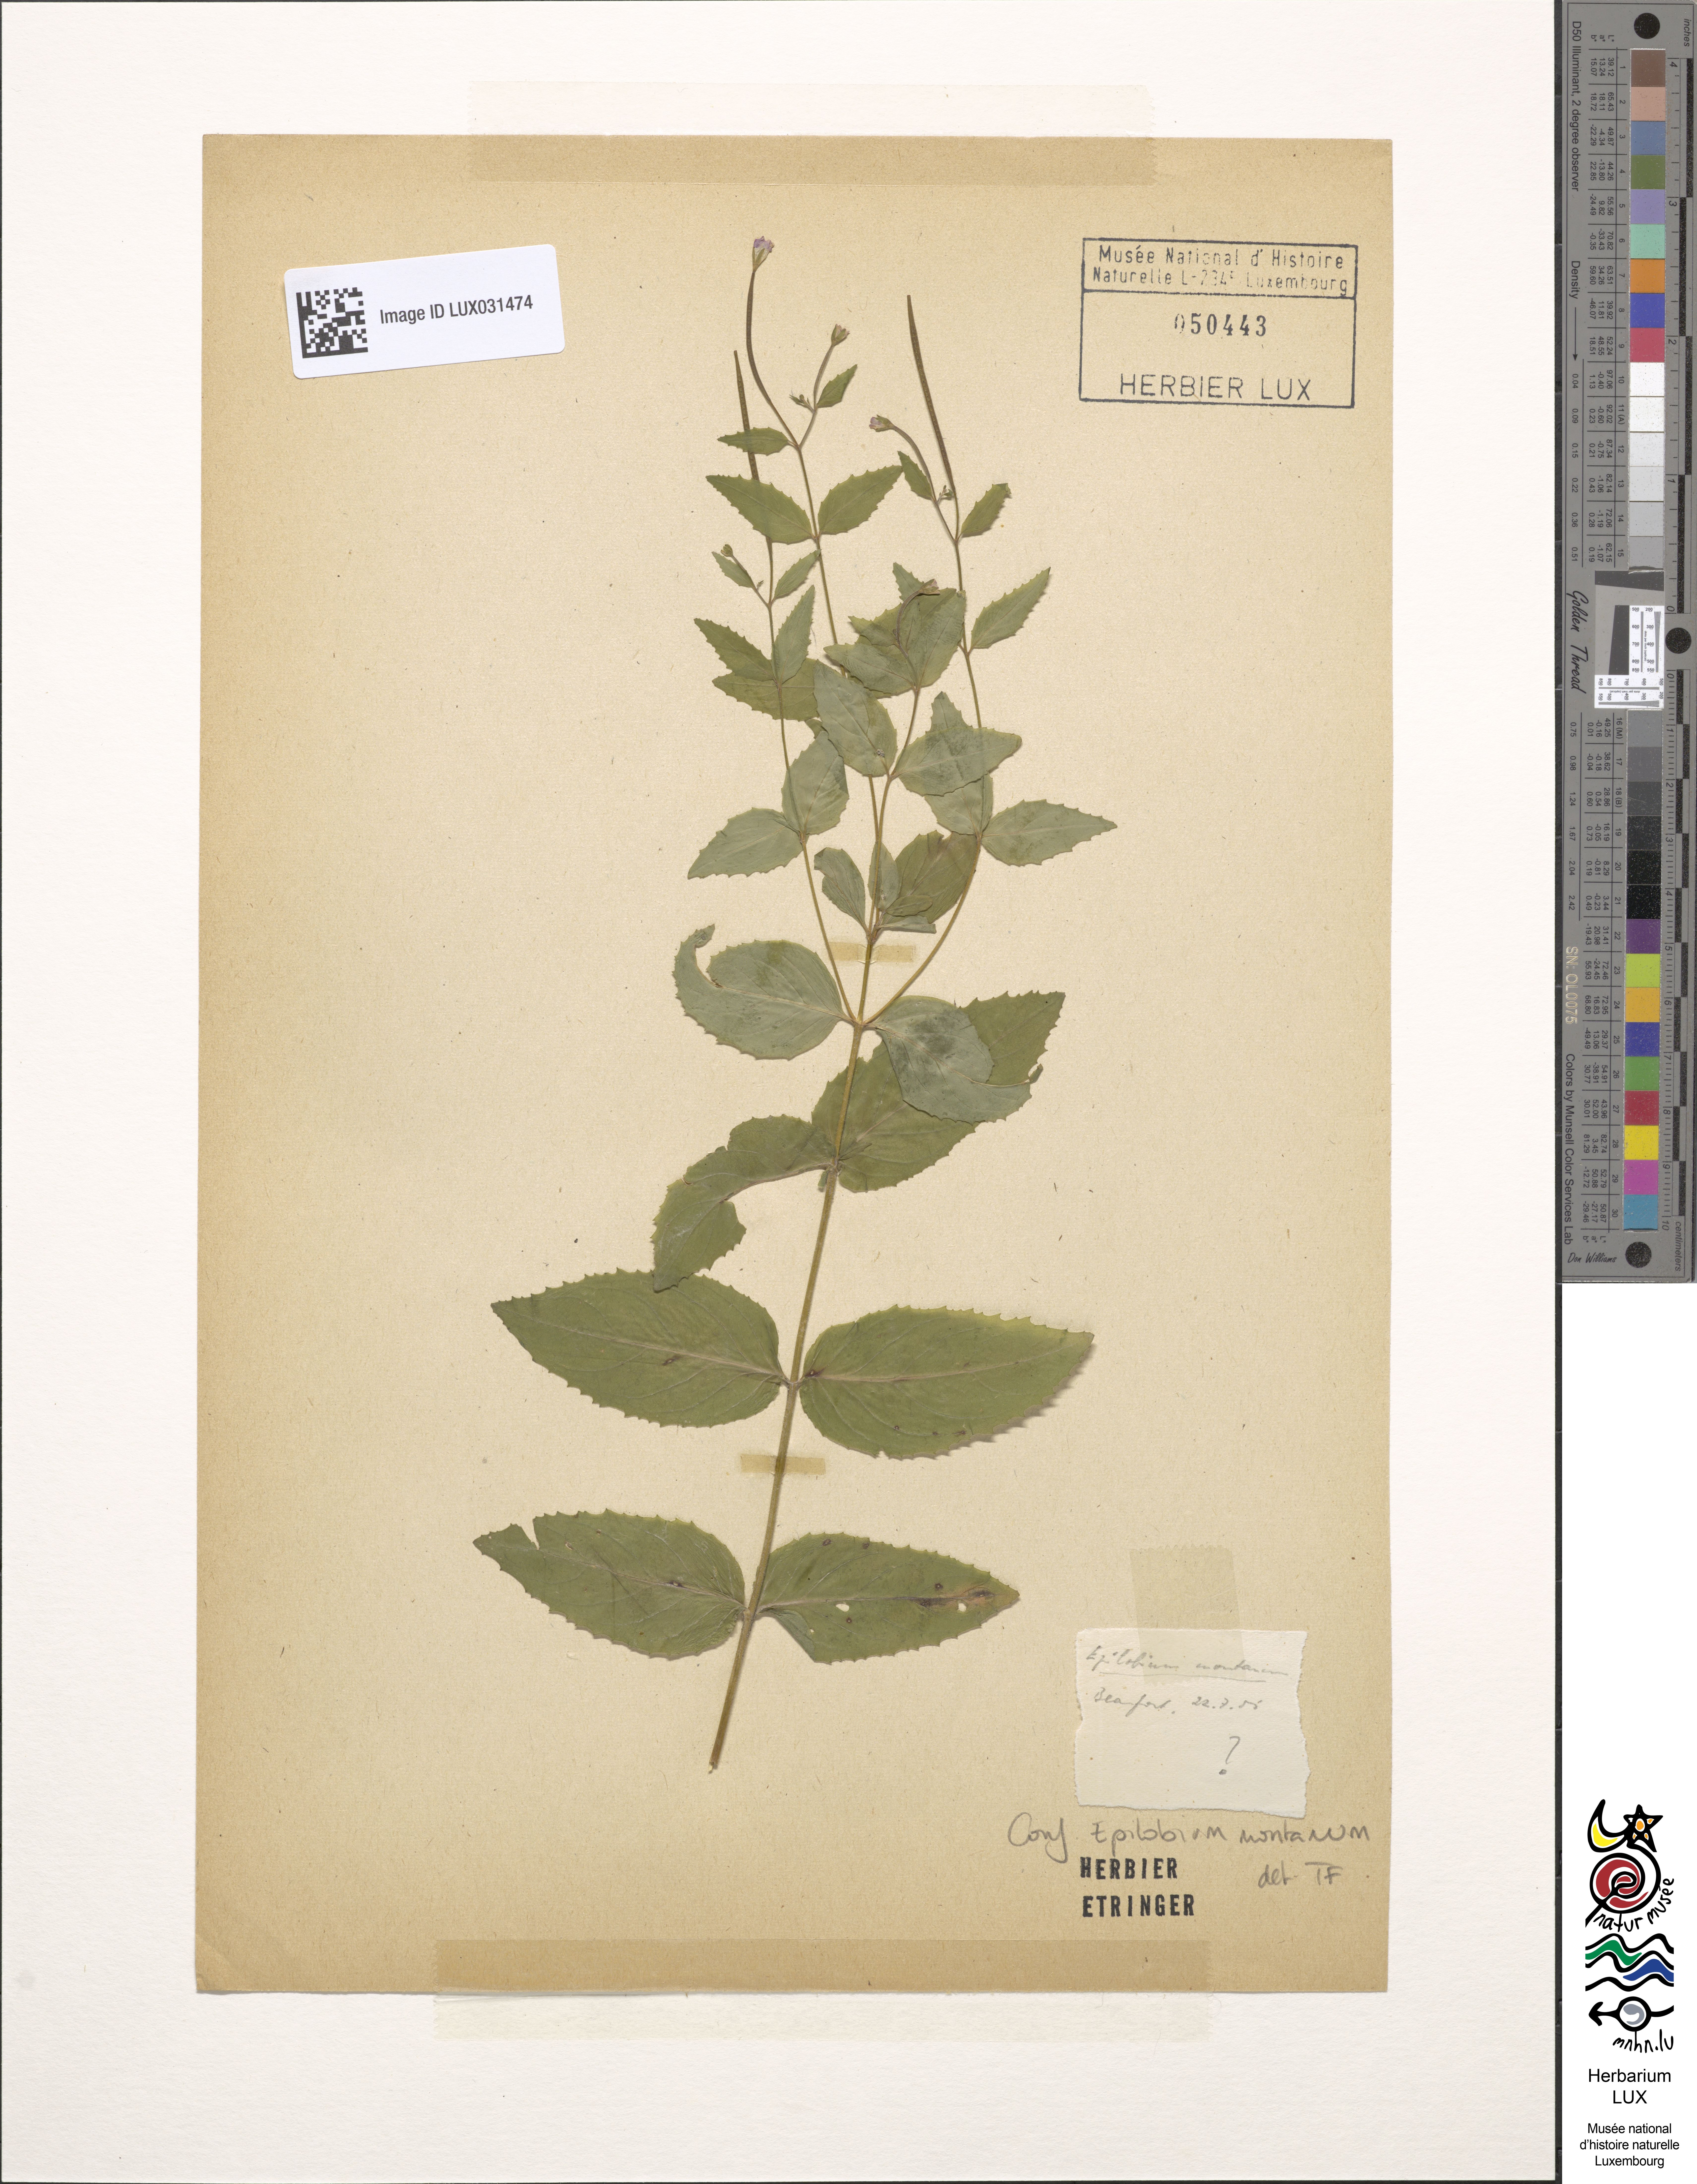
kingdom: Plantae
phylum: Tracheophyta
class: Magnoliopsida
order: Myrtales
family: Onagraceae
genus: Epilobium
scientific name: Epilobium montanum
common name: Broad-leaved willowherb
